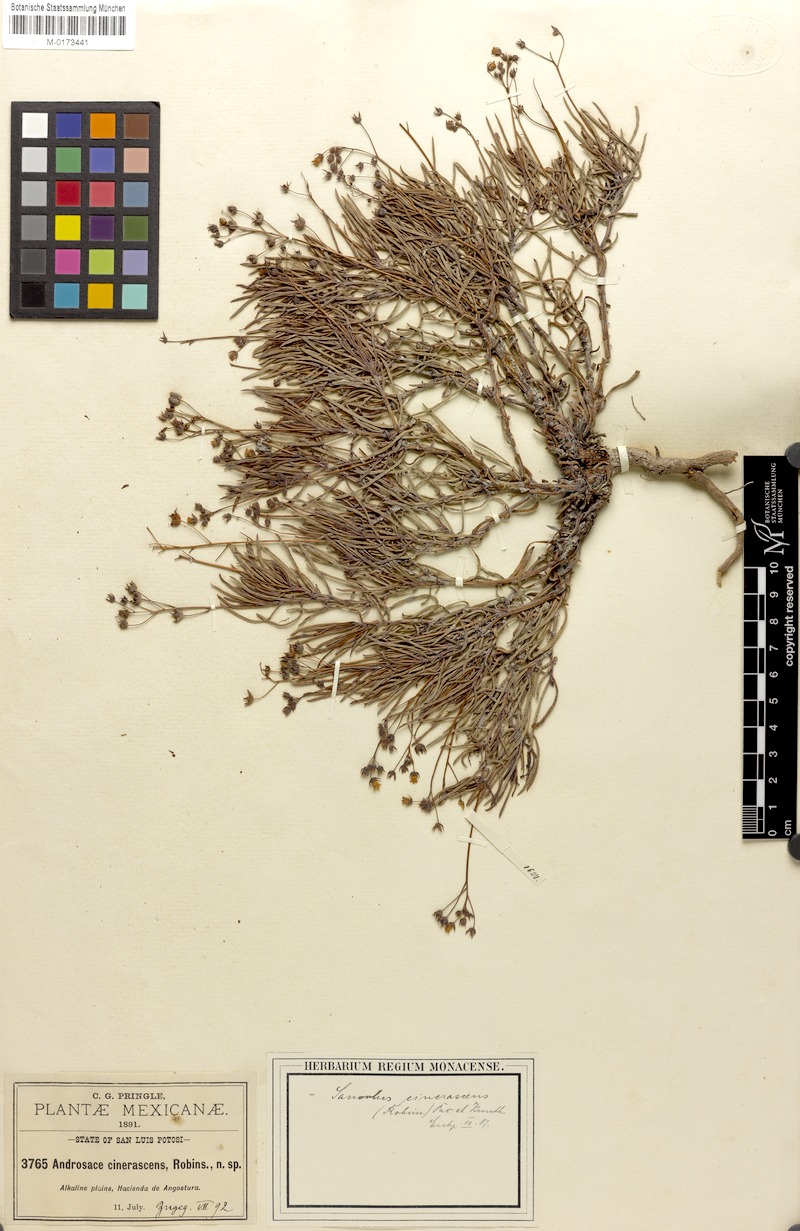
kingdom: Plantae
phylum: Tracheophyta
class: Magnoliopsida
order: Ericales
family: Primulaceae
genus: Samolus
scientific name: Samolus cinerascens
